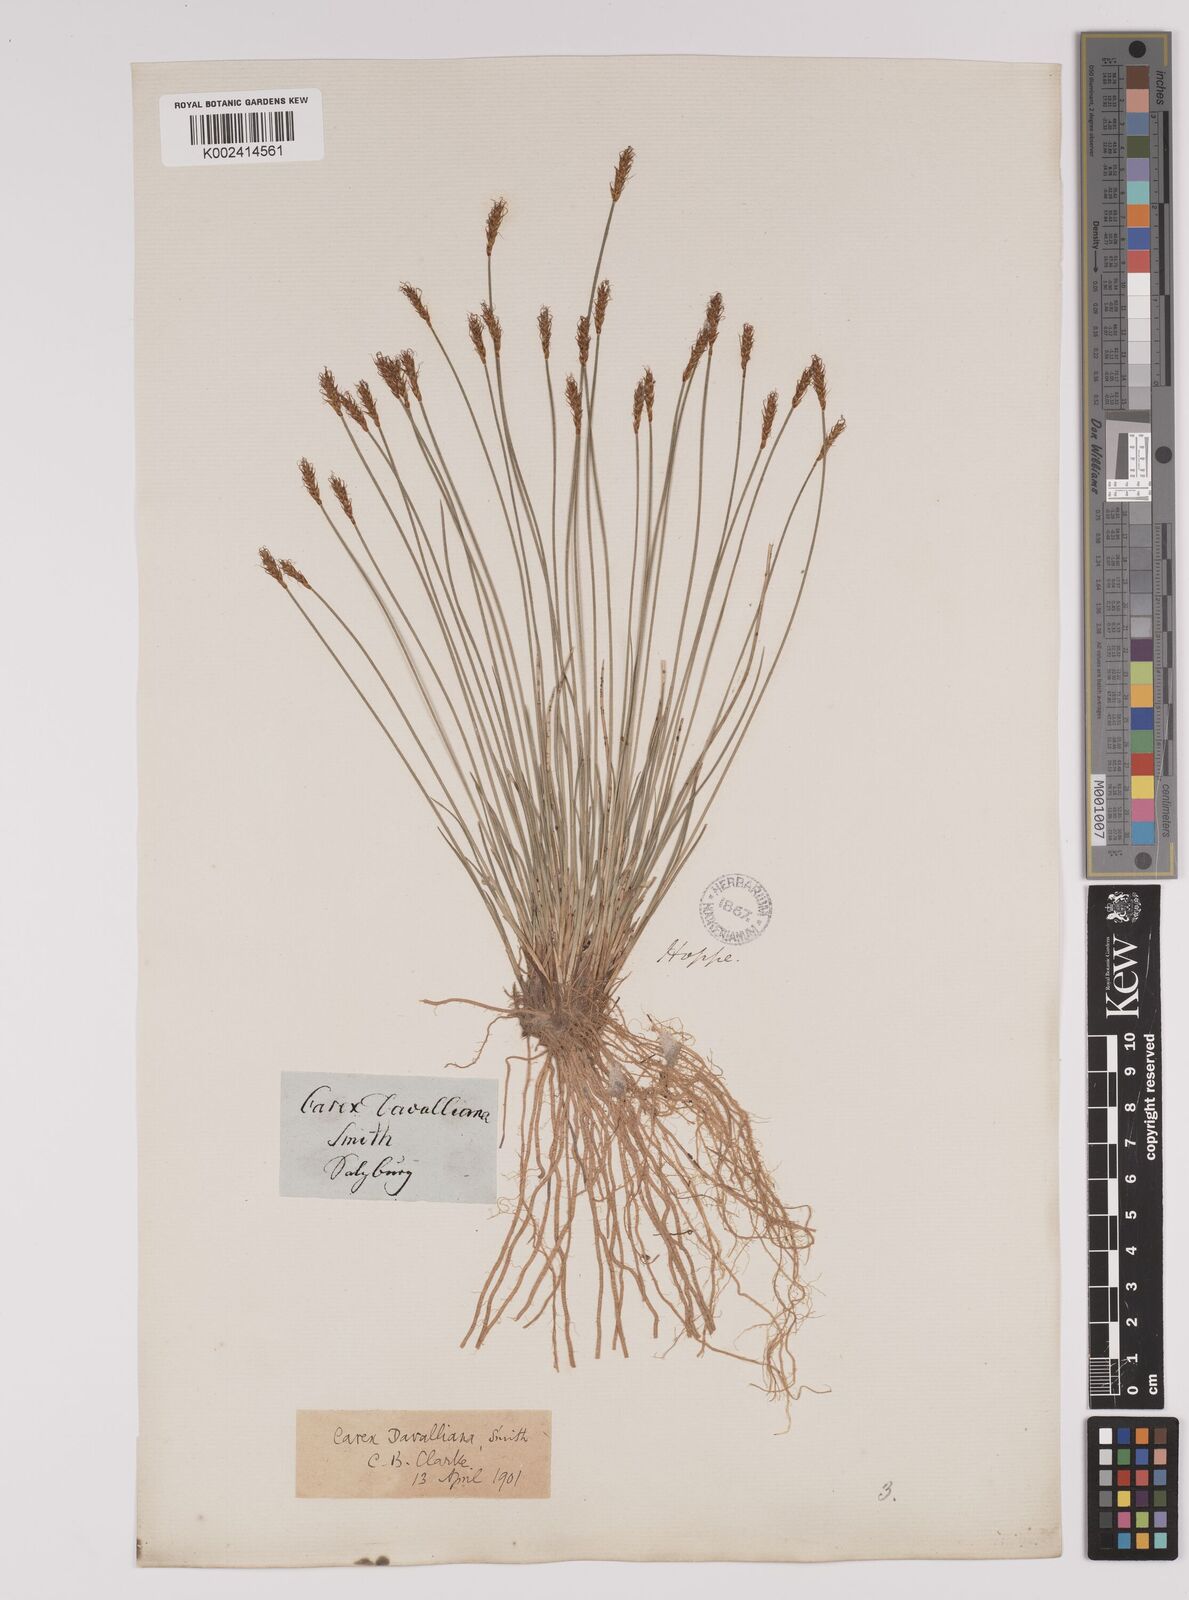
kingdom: Plantae
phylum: Tracheophyta
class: Liliopsida
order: Poales
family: Cyperaceae
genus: Carex
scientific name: Carex davalliana
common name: Davall's sedge
